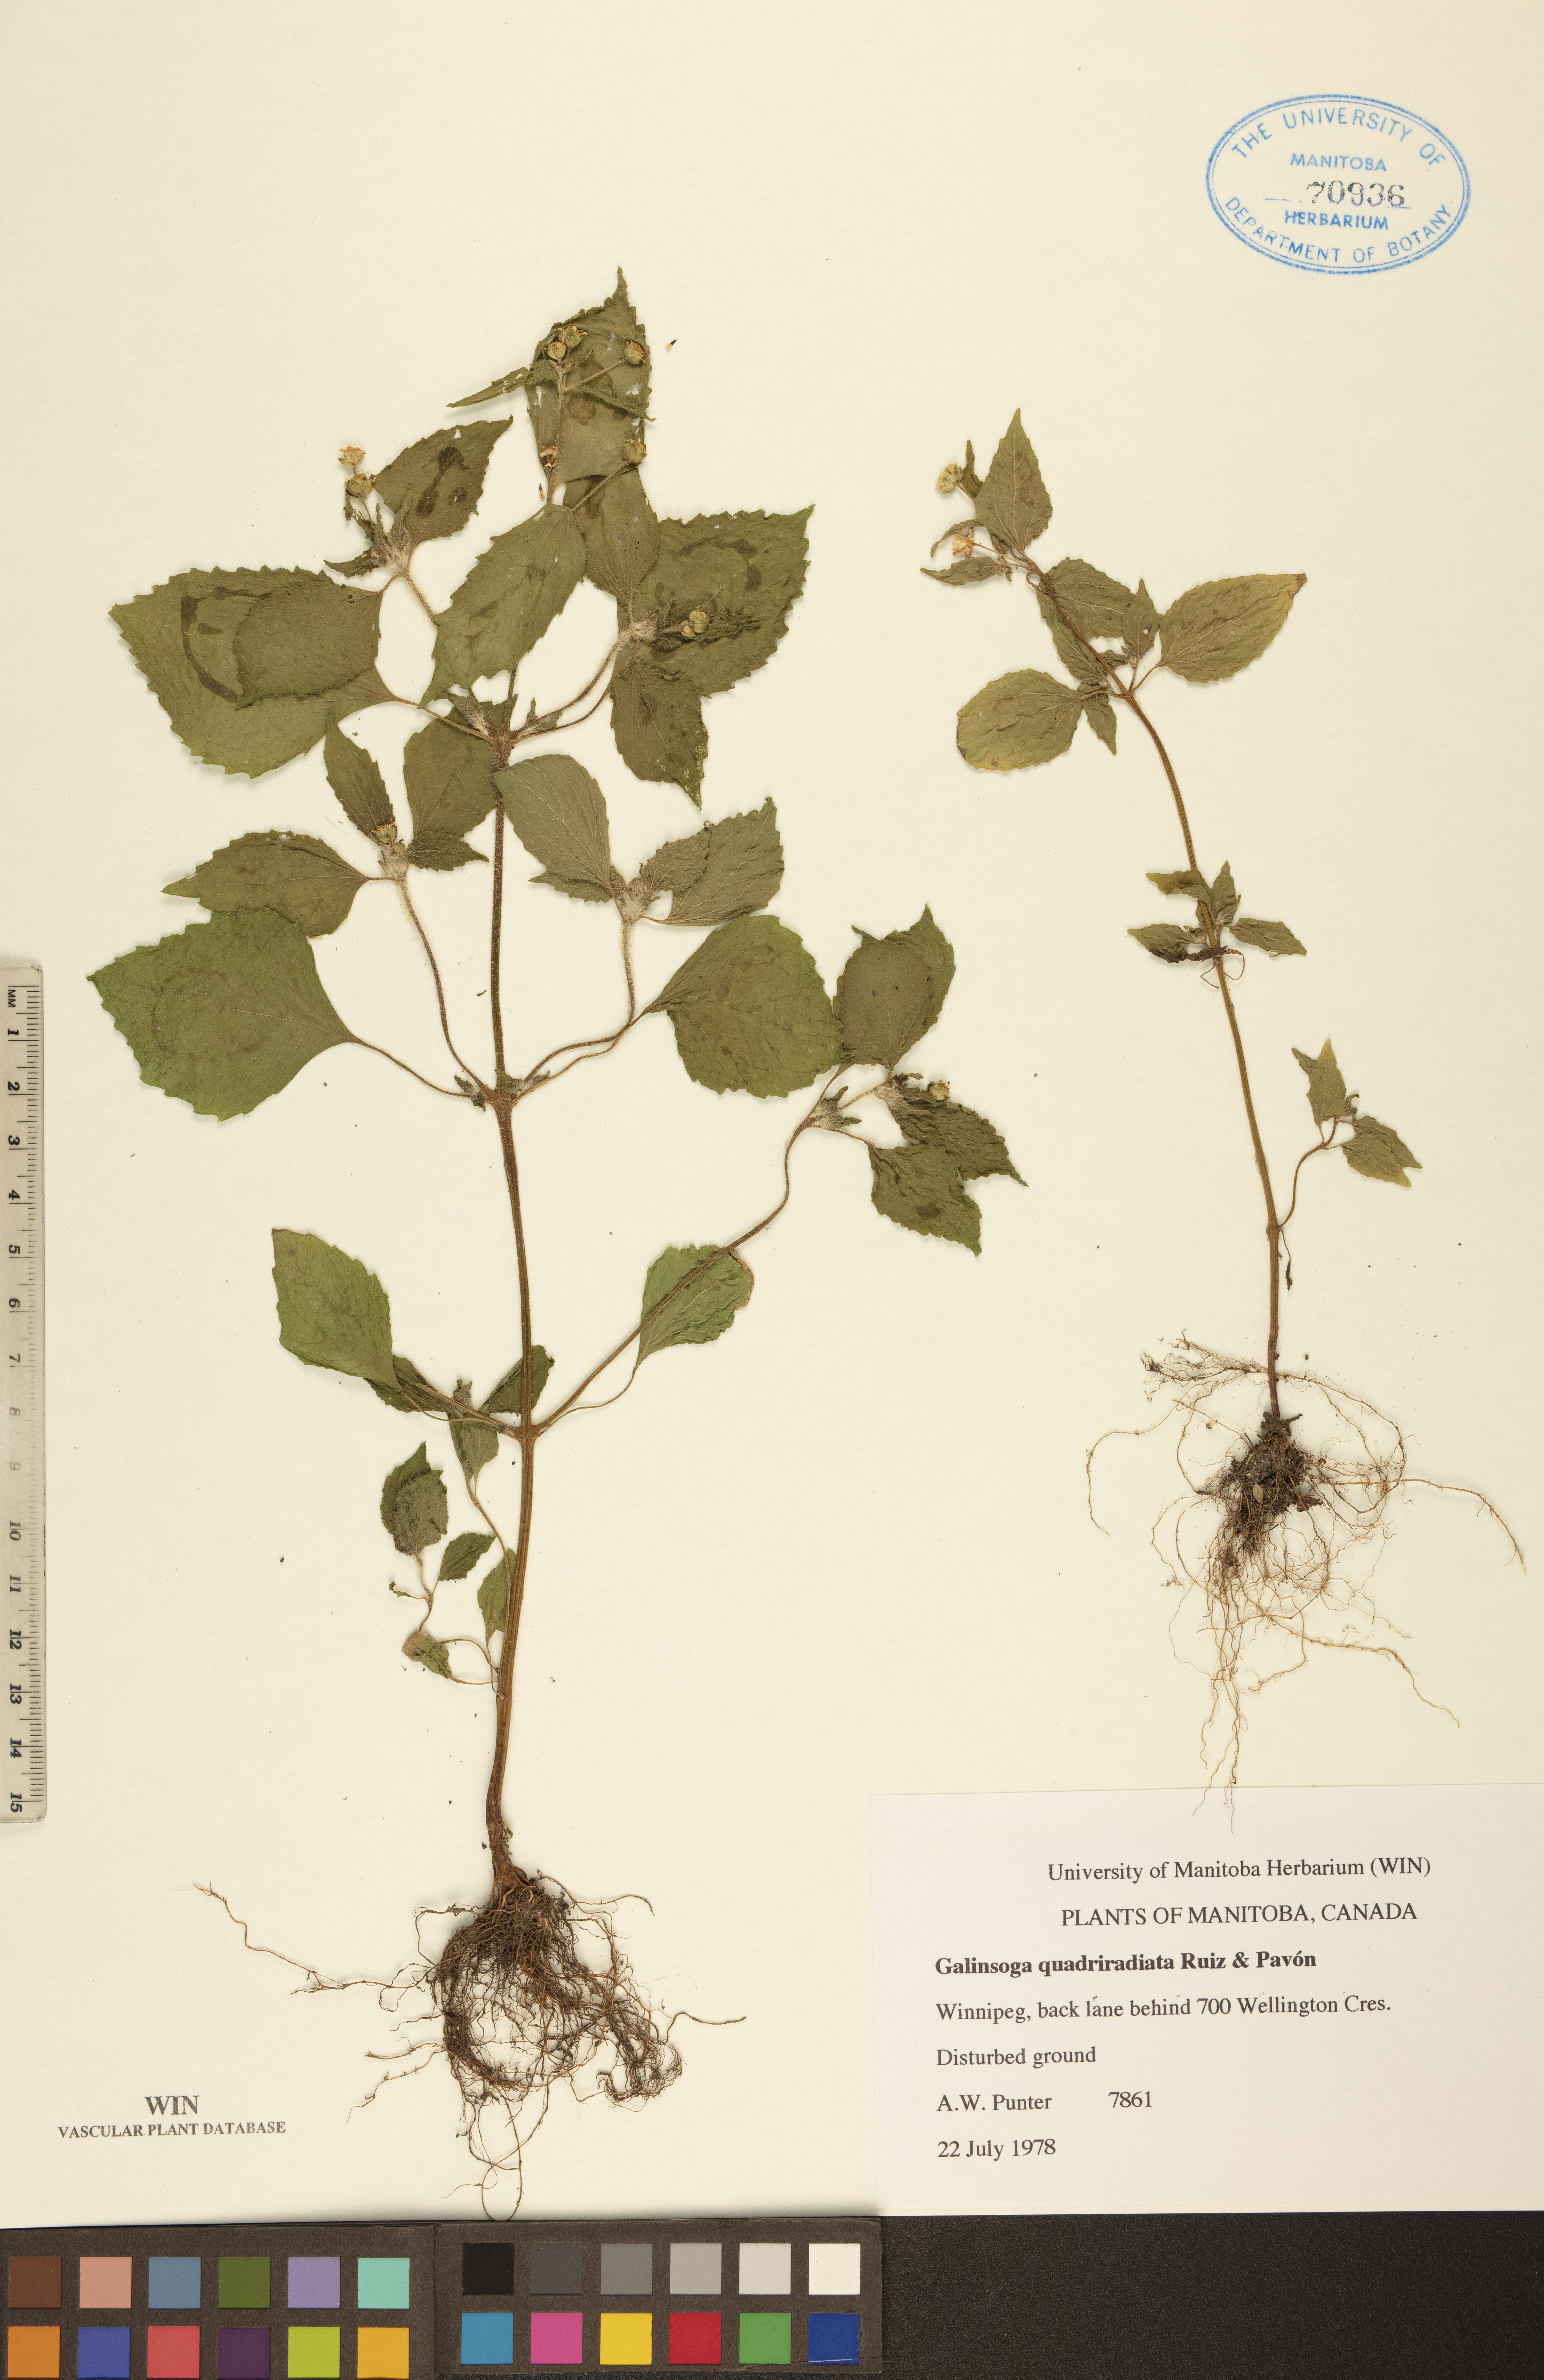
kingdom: Plantae
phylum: Tracheophyta
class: Magnoliopsida
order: Asterales
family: Asteraceae
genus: Galinsoga
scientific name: Galinsoga quadriradiata
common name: Shaggy soldier
